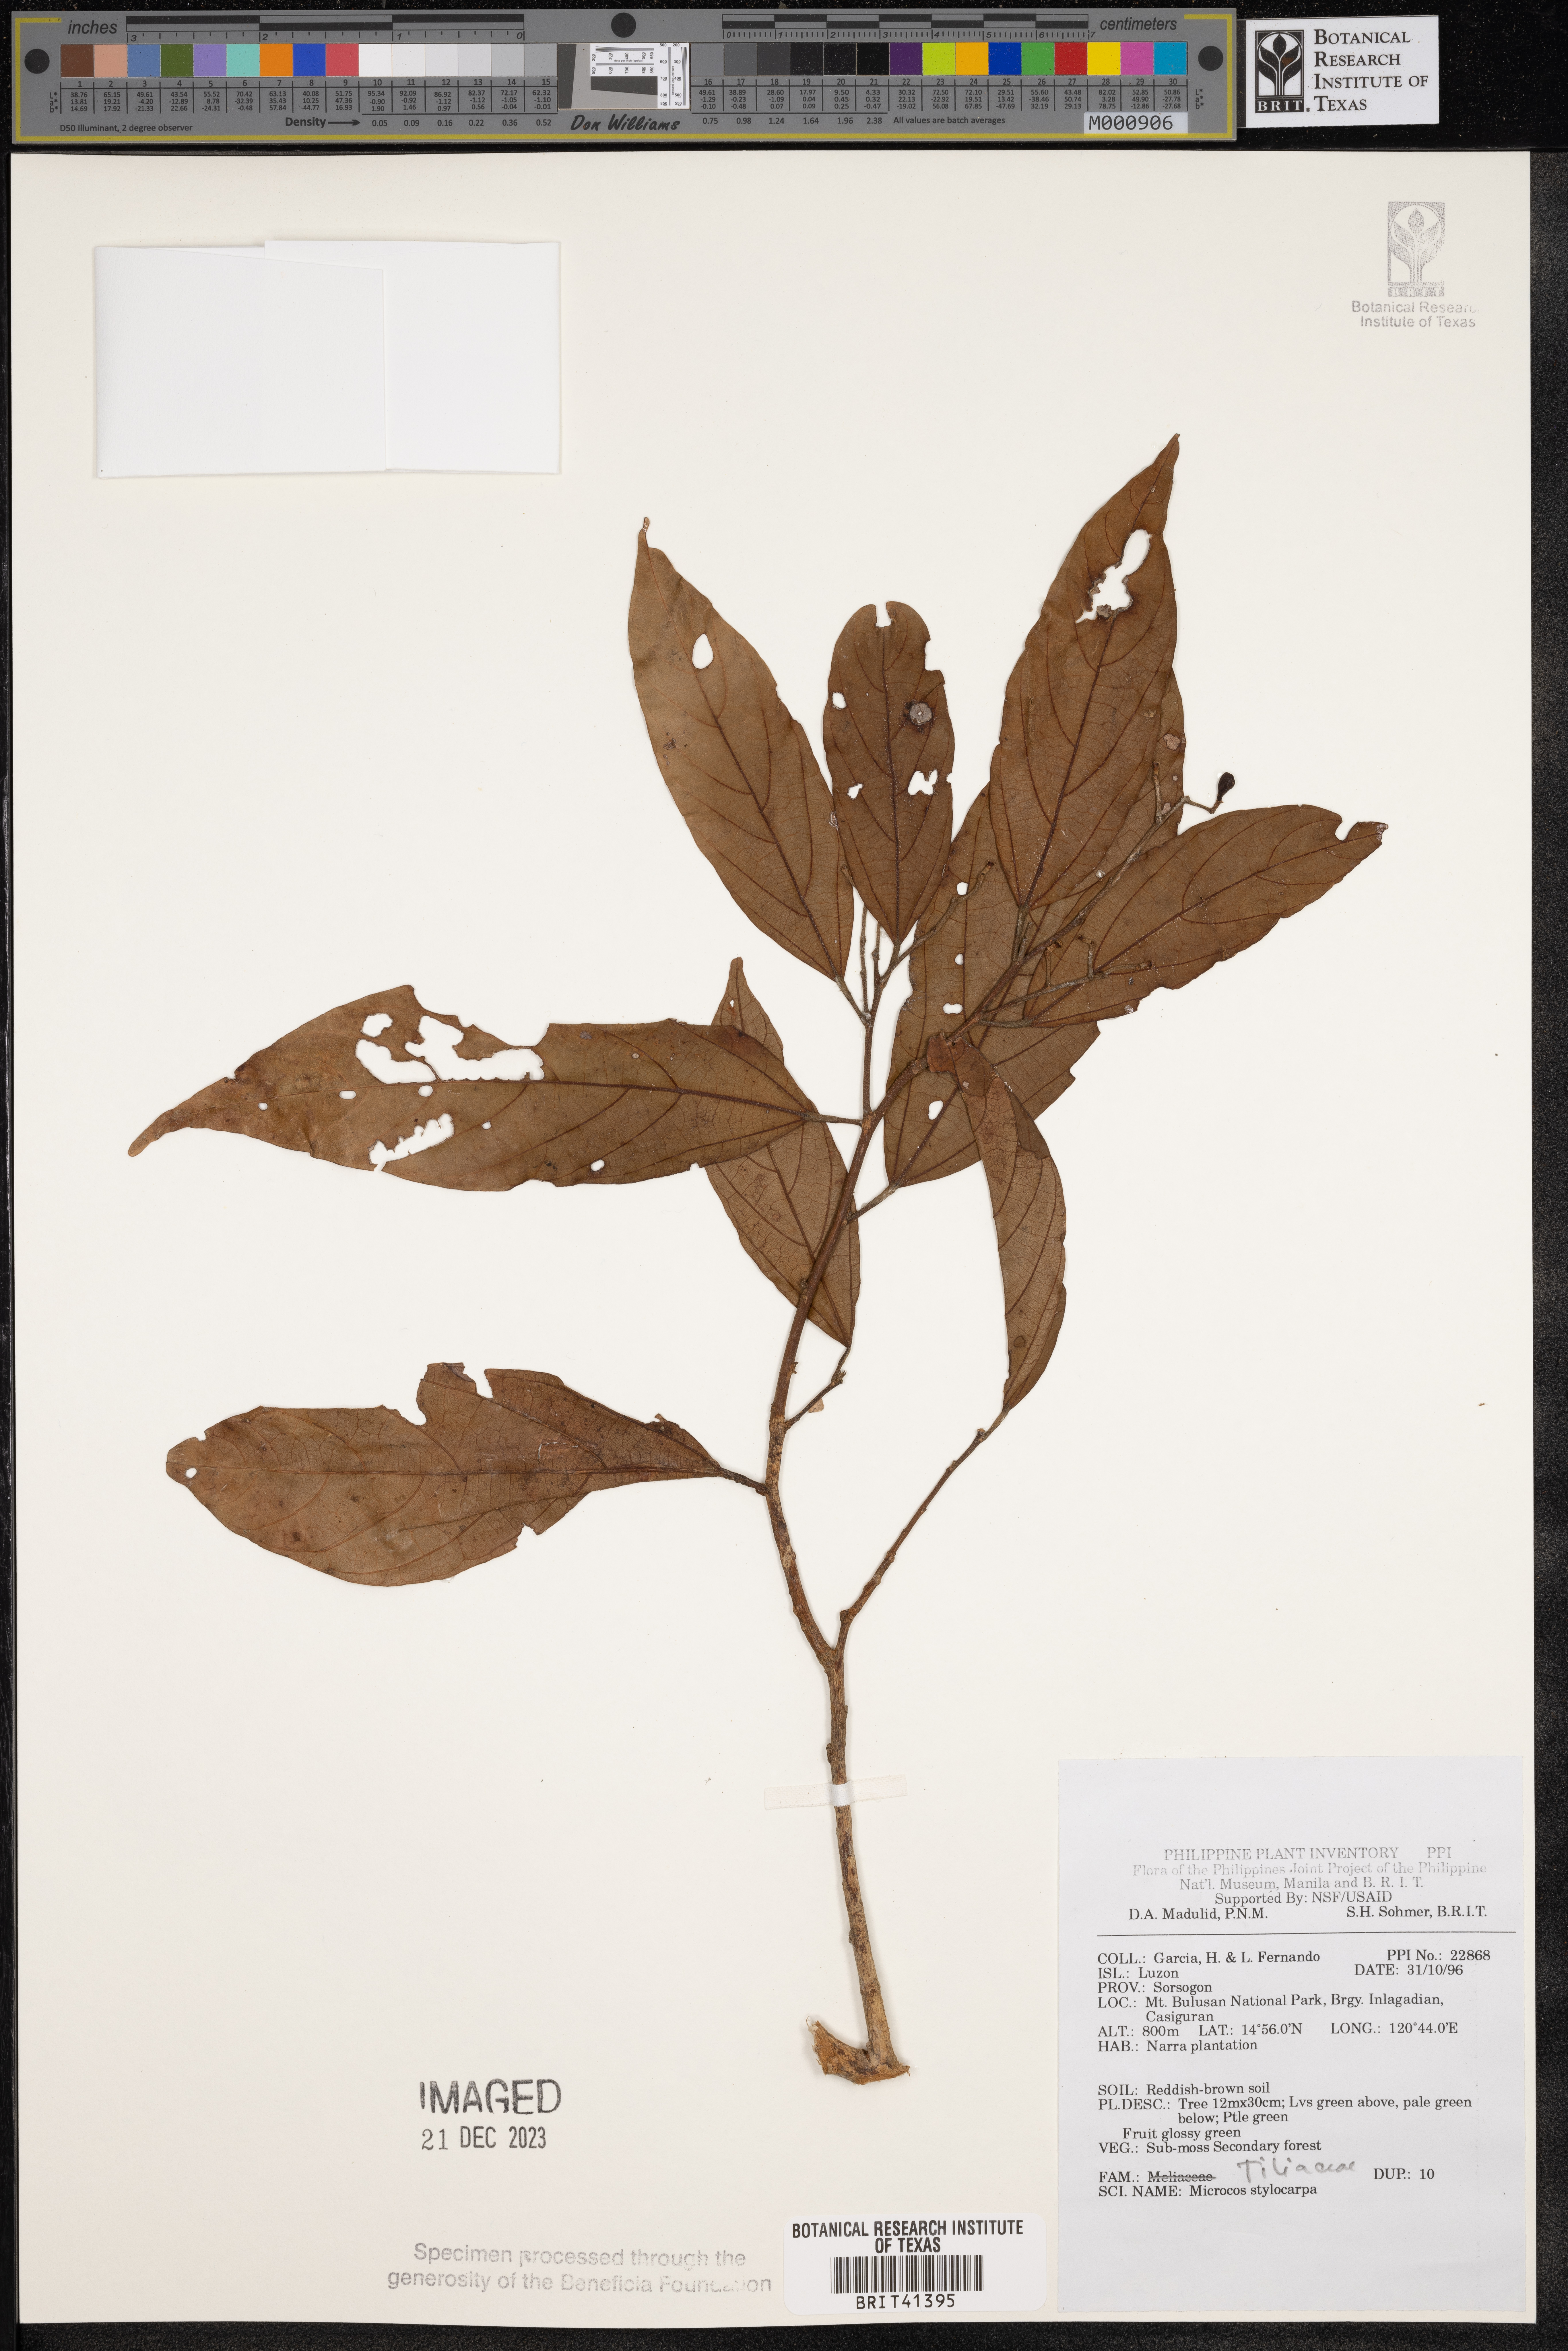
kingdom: Plantae
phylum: Tracheophyta
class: Magnoliopsida
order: Malvales
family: Malvaceae
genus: Microcos
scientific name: Microcos triflora
